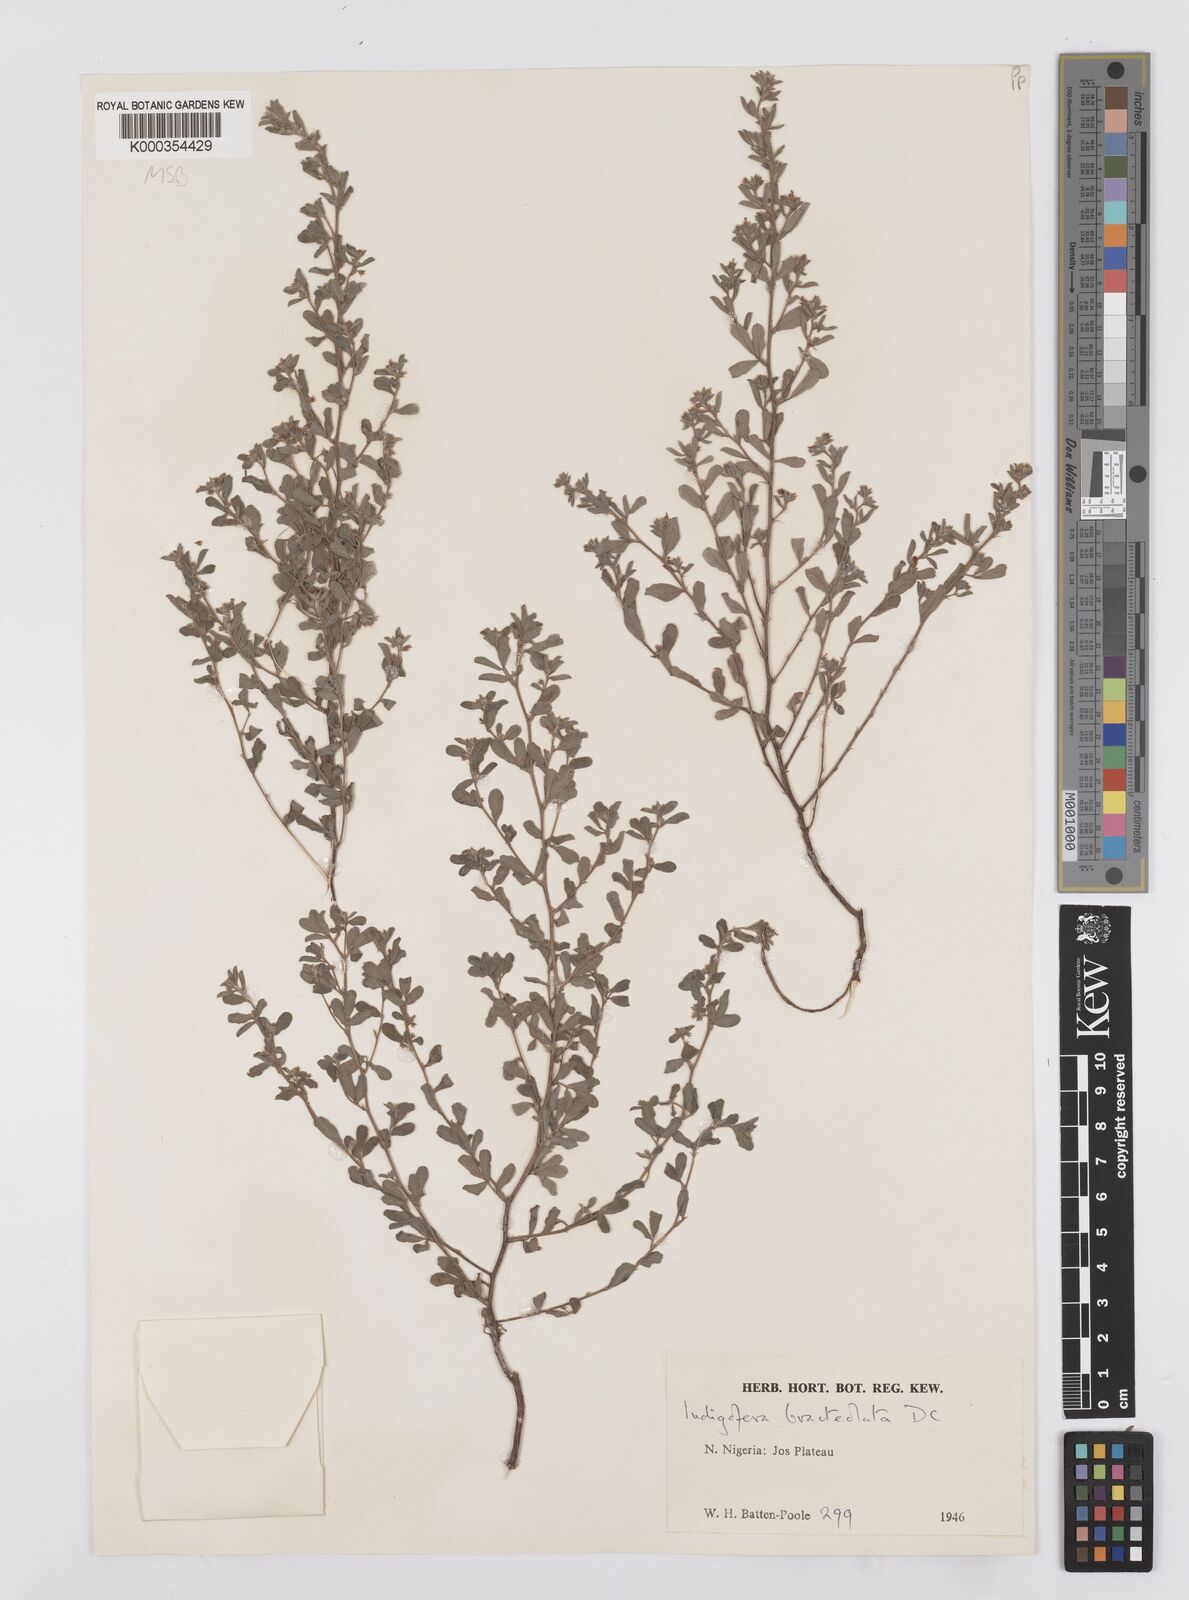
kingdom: Plantae
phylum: Tracheophyta
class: Magnoliopsida
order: Fabales
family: Fabaceae
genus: Indigofera
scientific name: Indigofera bracteolata
